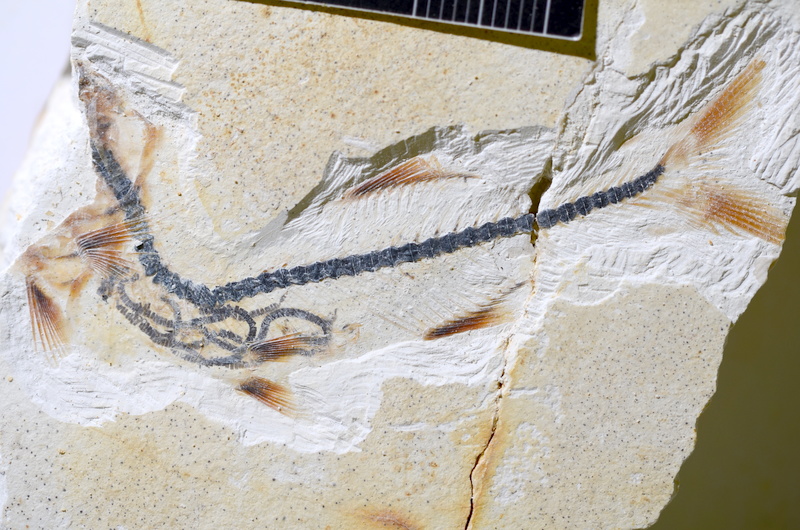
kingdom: Animalia
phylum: Chordata
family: Ascalaboidae
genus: Ebertichthys
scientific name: Ebertichthys ettlingensis
